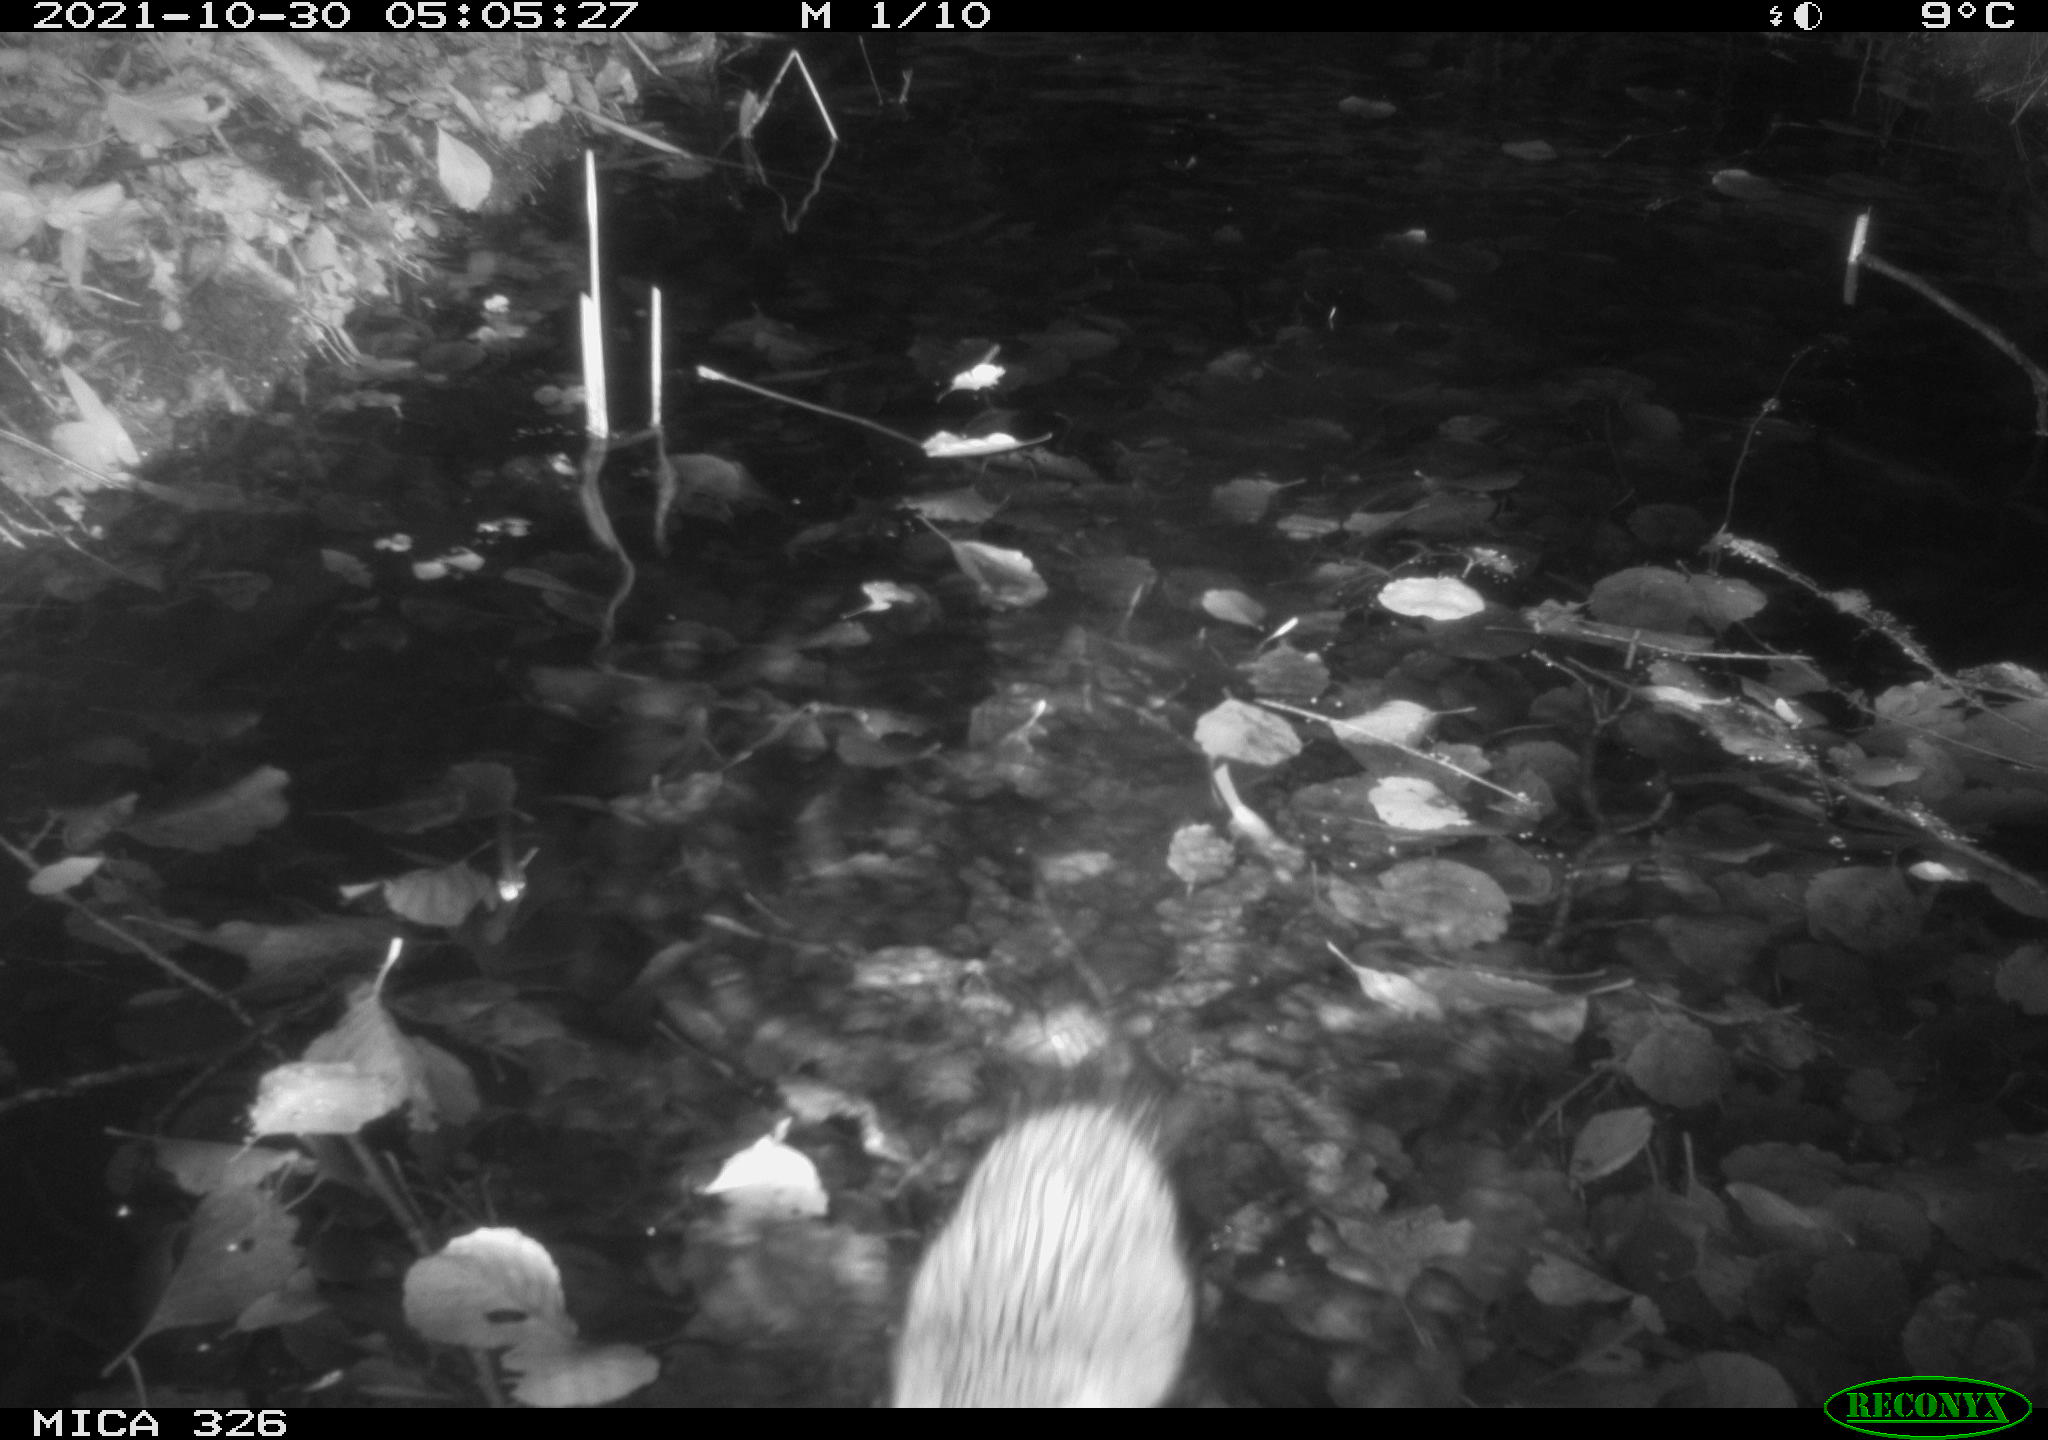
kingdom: Animalia
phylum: Chordata
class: Mammalia
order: Rodentia
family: Cricetidae
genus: Ondatra
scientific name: Ondatra zibethicus
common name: Muskrat
